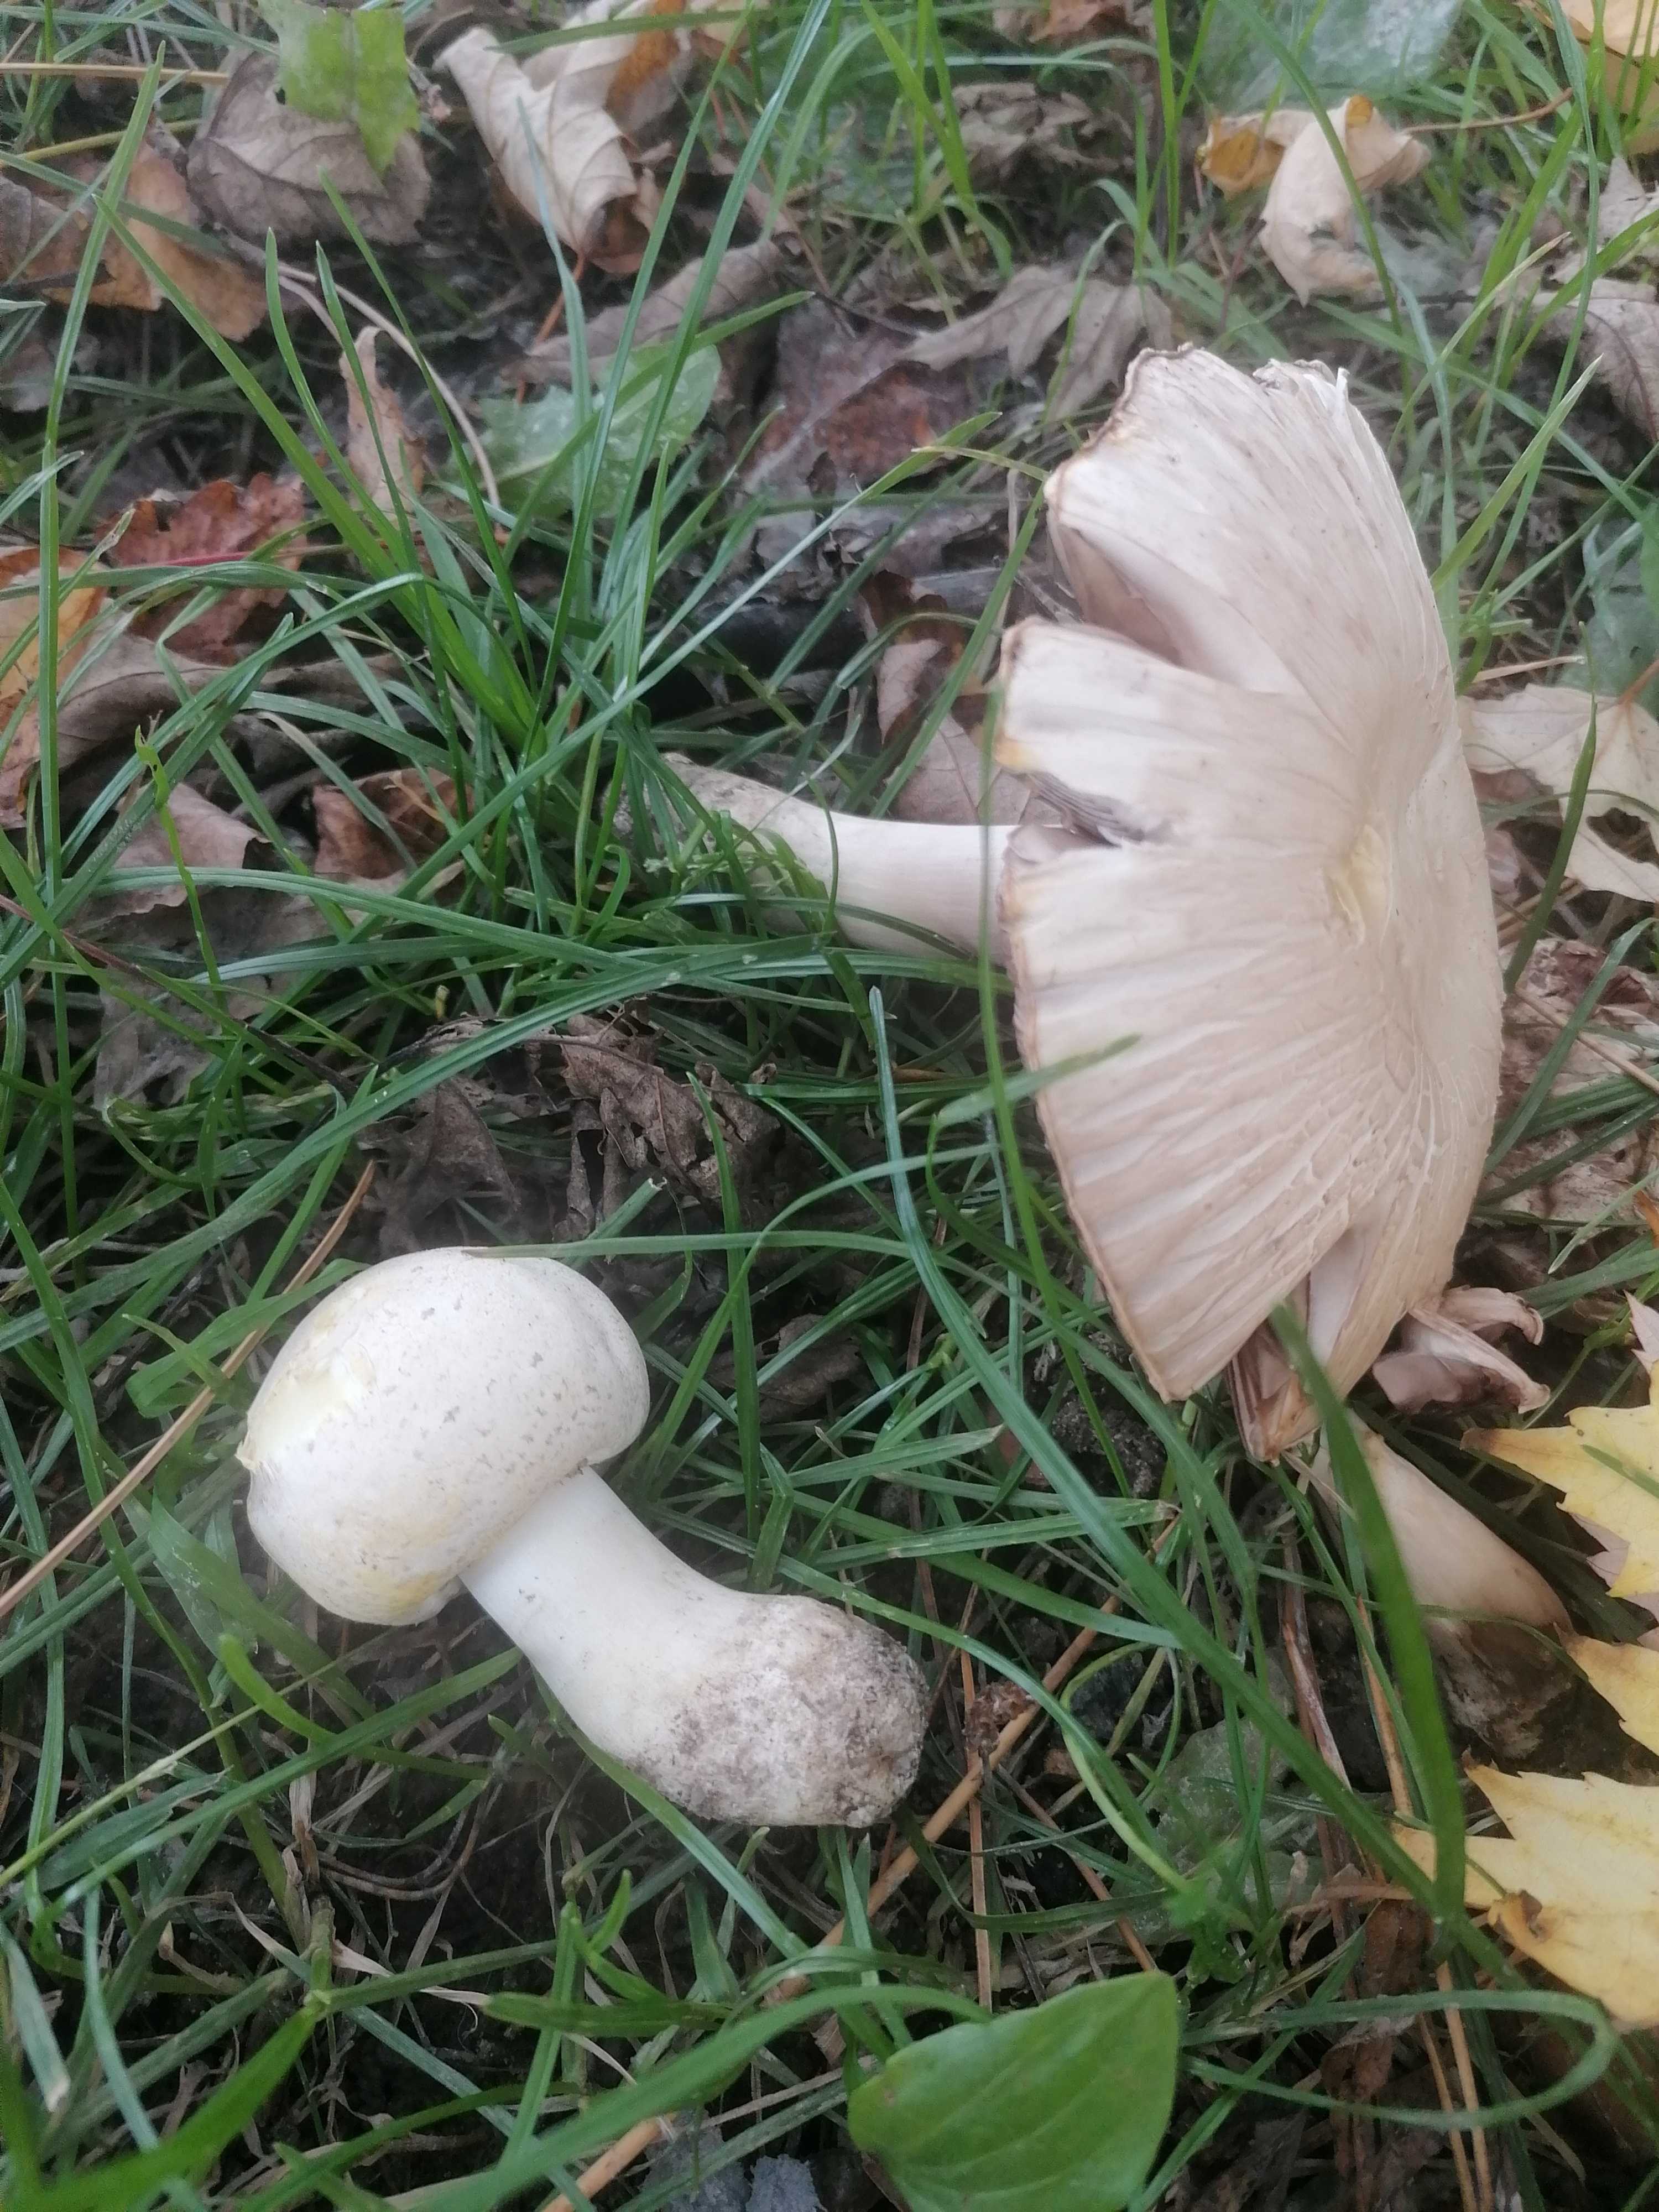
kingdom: Fungi
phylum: Basidiomycota
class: Agaricomycetes
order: Agaricales
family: Agaricaceae
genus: Agaricus
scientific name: Agaricus xanthodermus
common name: karbol-champignon
